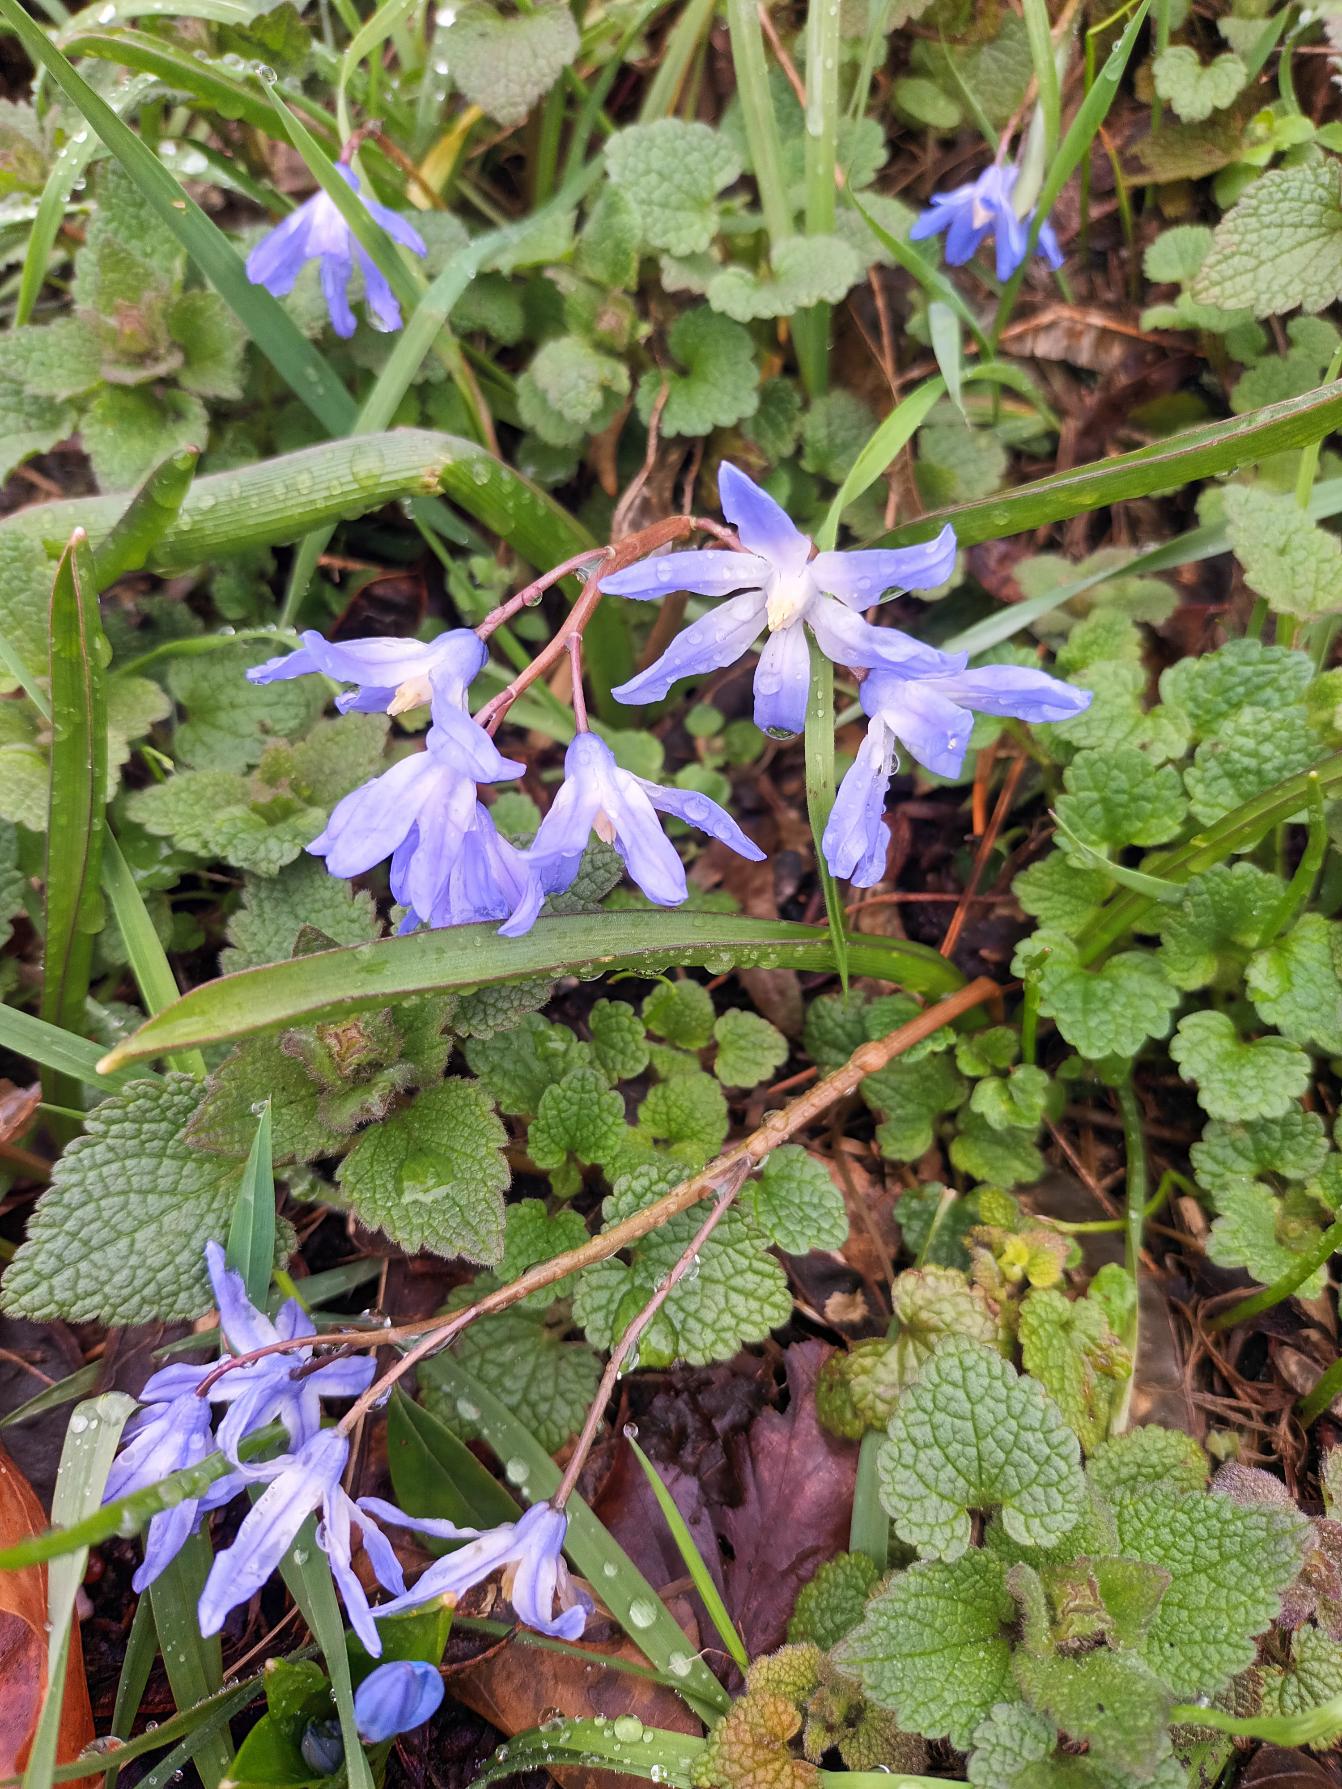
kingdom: Plantae
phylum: Tracheophyta
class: Liliopsida
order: Asparagales
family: Asparagaceae
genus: Scilla
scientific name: Scilla forbesii
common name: Almindelig snepryd
